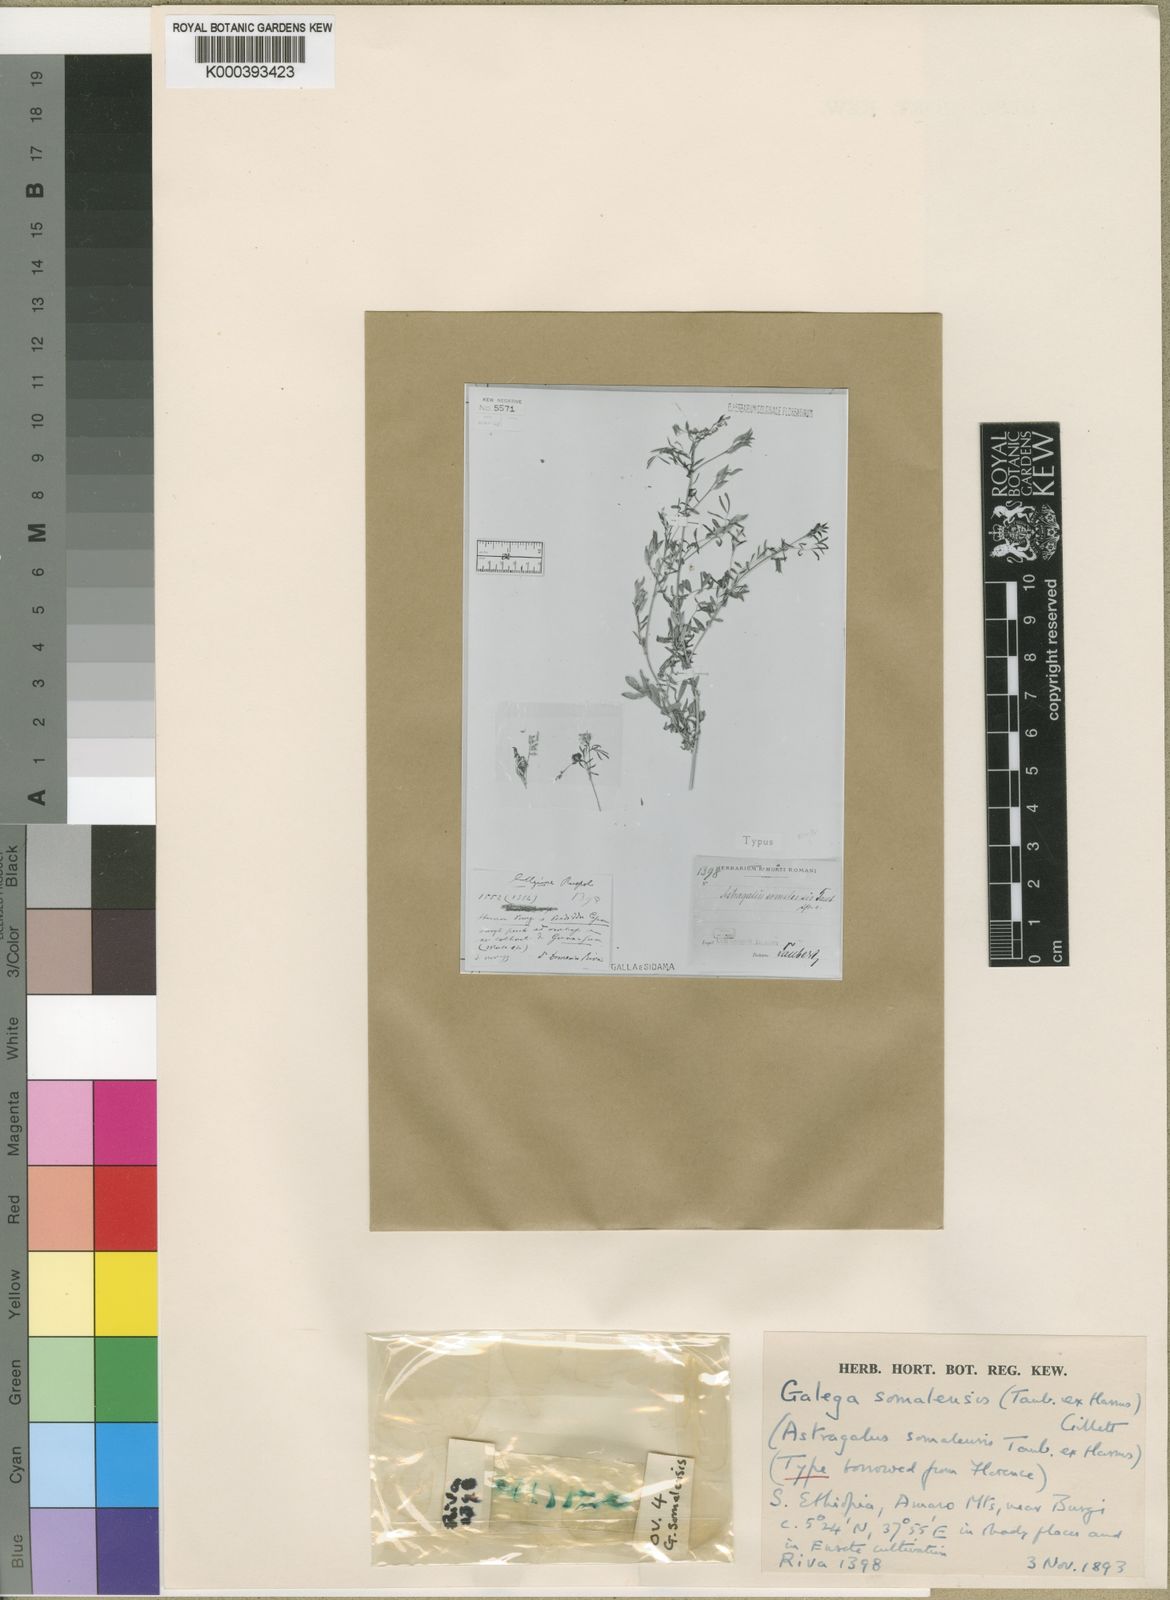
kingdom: Plantae
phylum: Tracheophyta
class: Magnoliopsida
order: Fabales
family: Fabaceae
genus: Galega
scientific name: Galega somalensis
